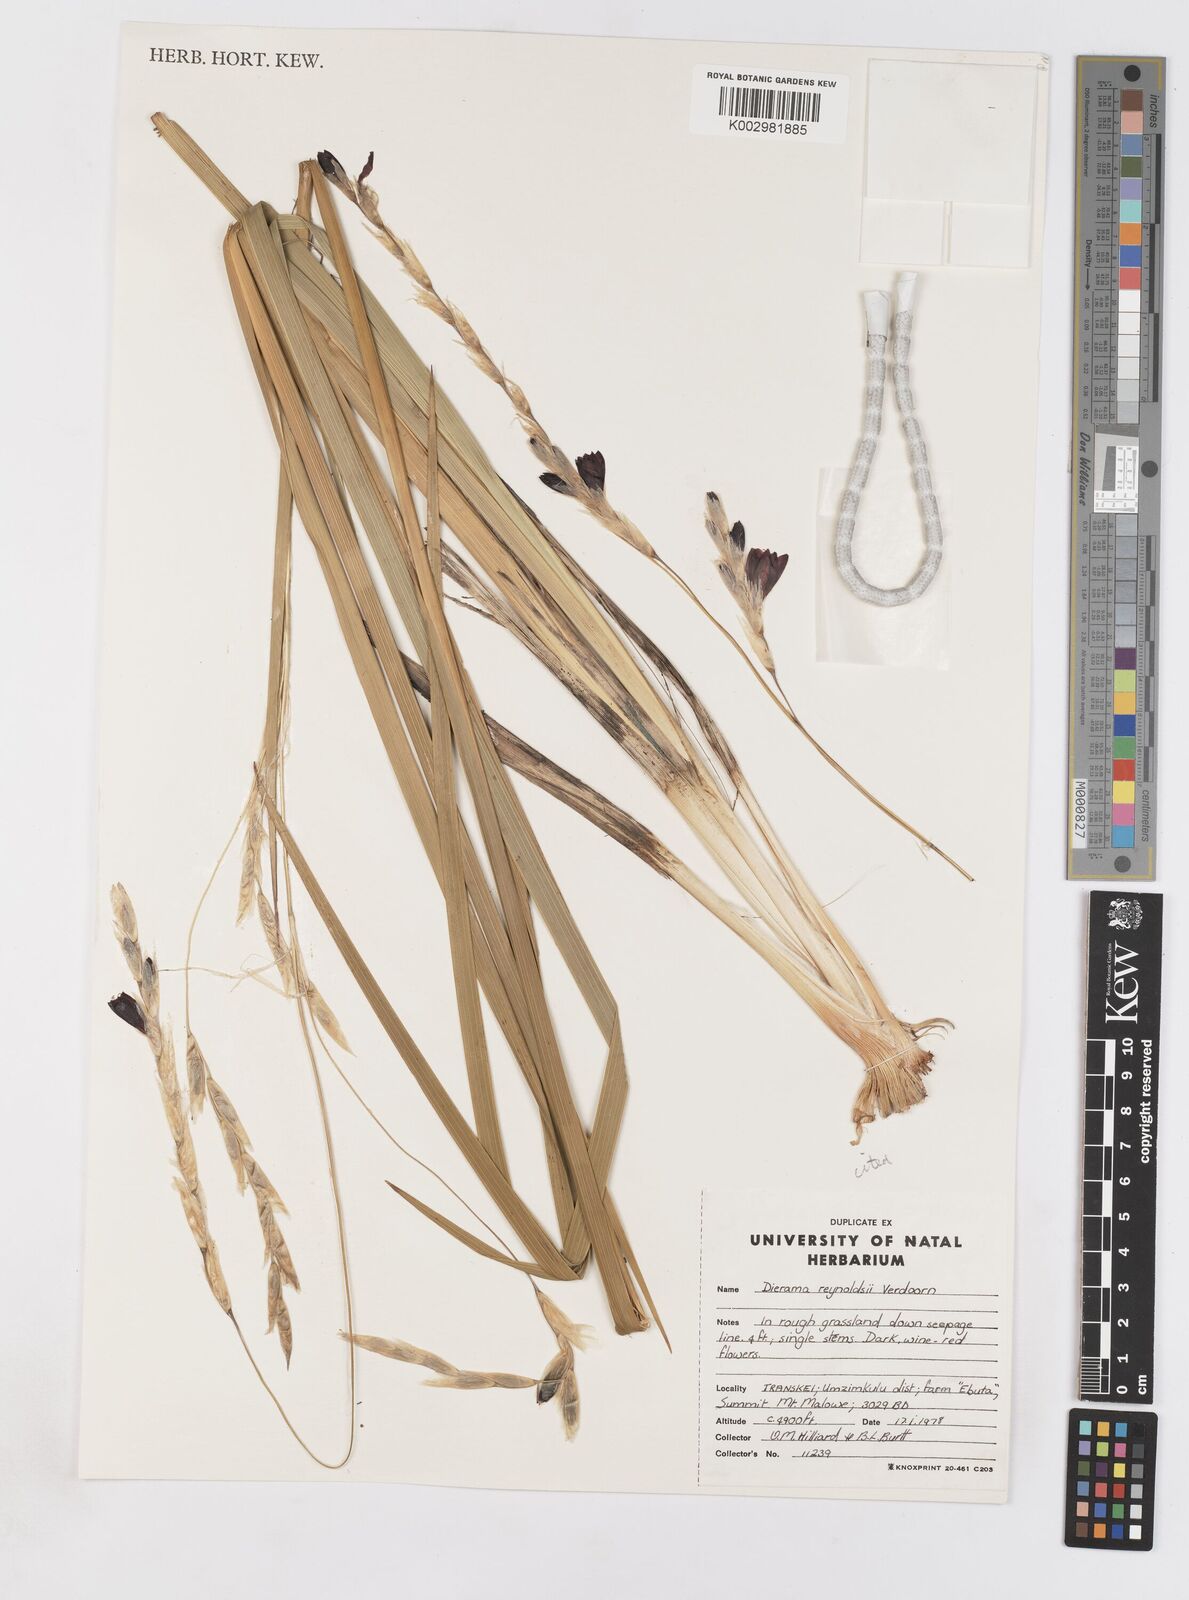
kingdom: Plantae
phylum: Tracheophyta
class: Liliopsida
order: Asparagales
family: Iridaceae
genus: Dierama
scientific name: Dierama reynoldsii
